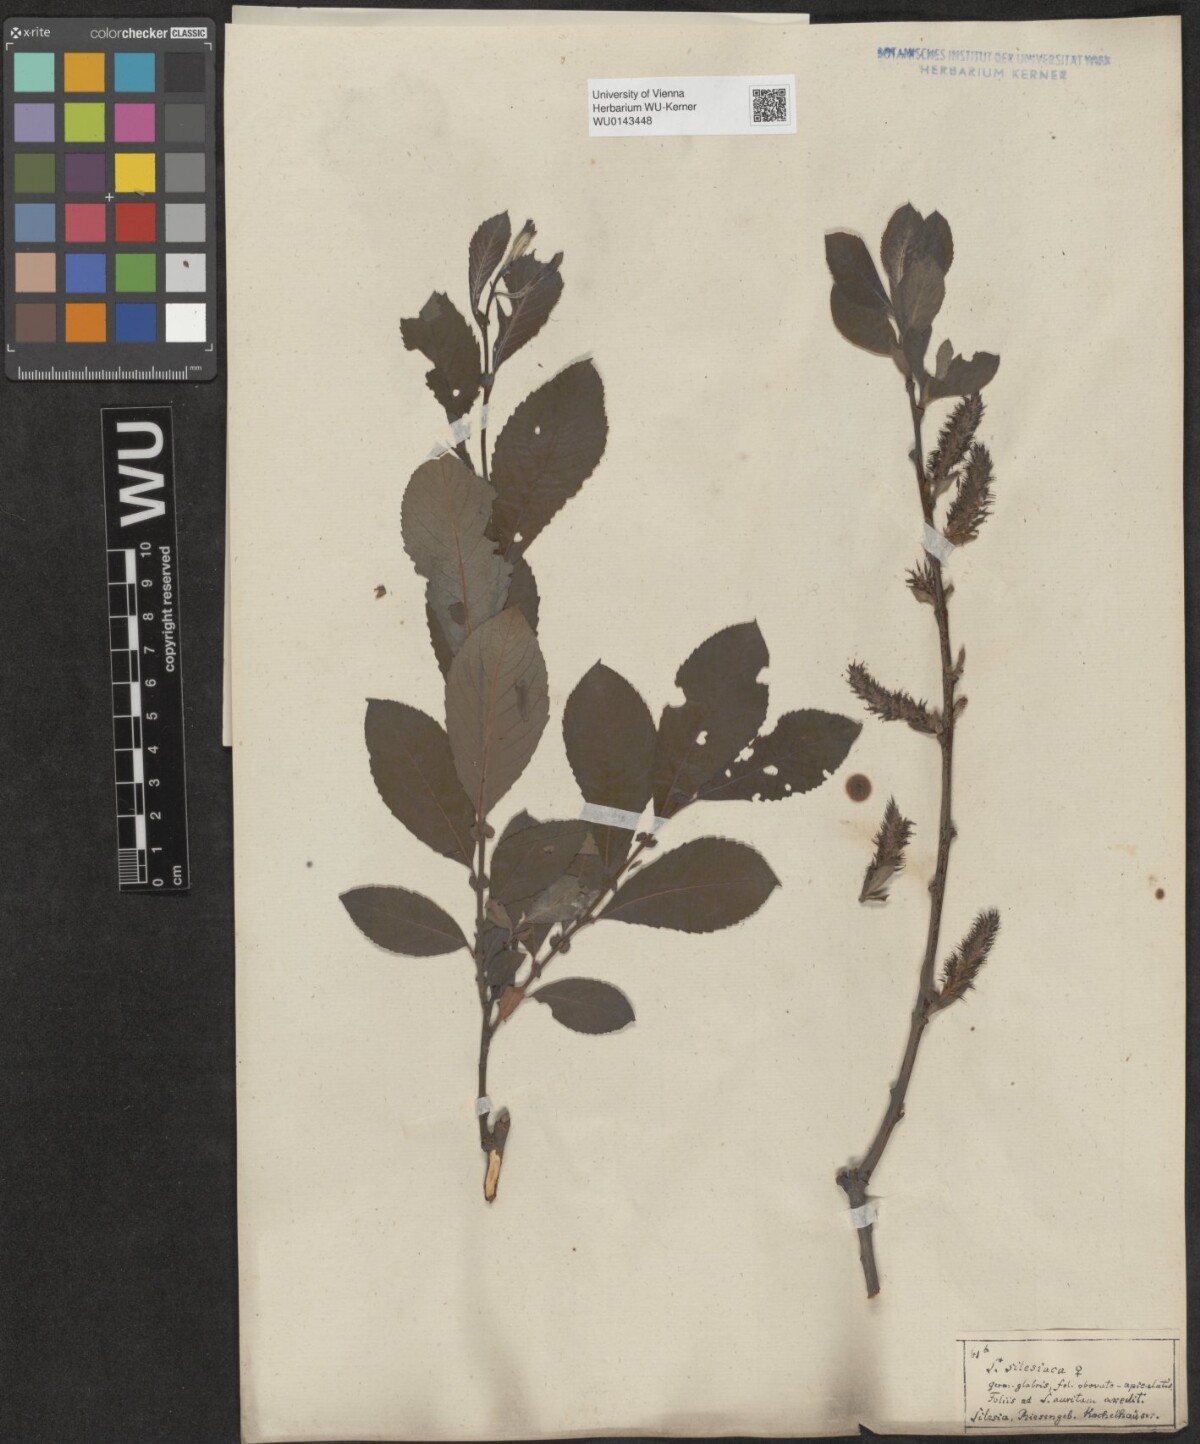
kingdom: Plantae
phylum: Tracheophyta
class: Magnoliopsida
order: Malpighiales
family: Salicaceae
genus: Salix
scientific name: Salix silesiaca
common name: Silesian willow
